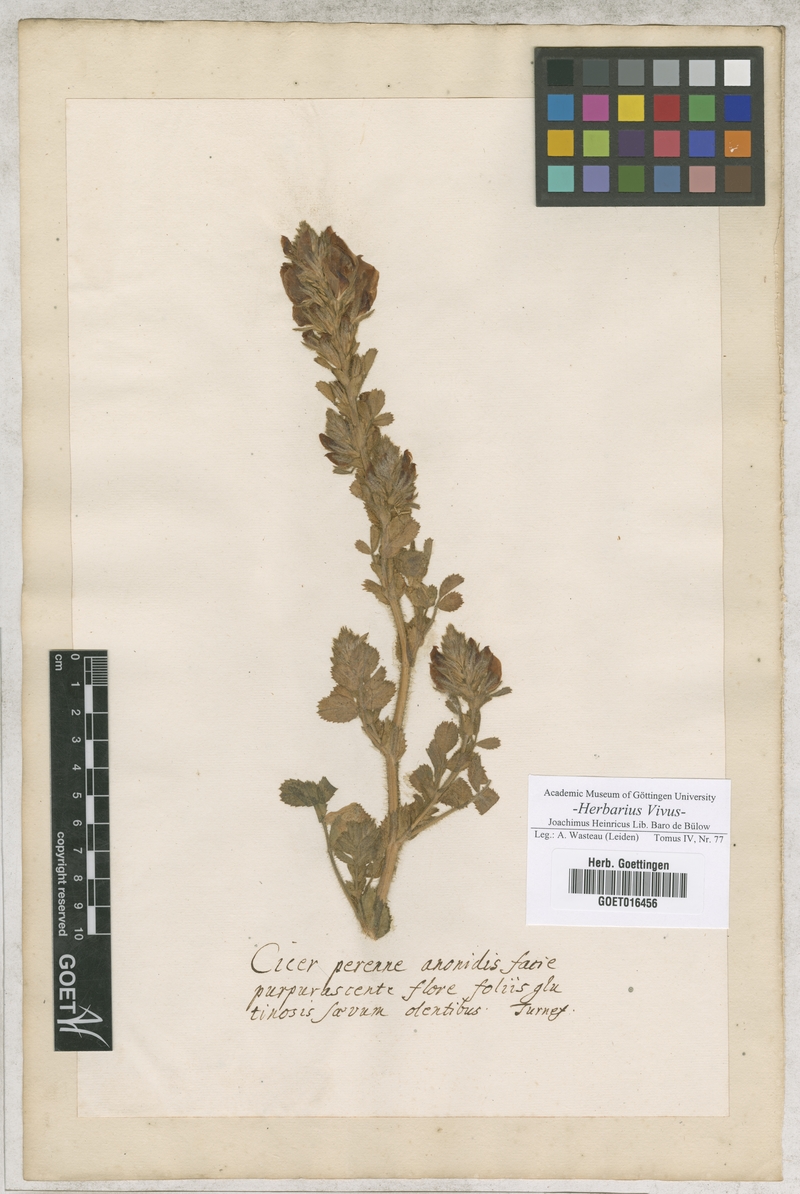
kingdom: Plantae
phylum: Tracheophyta
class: Magnoliopsida
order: Fabales
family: Fabaceae
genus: Cicer
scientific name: Cicer
